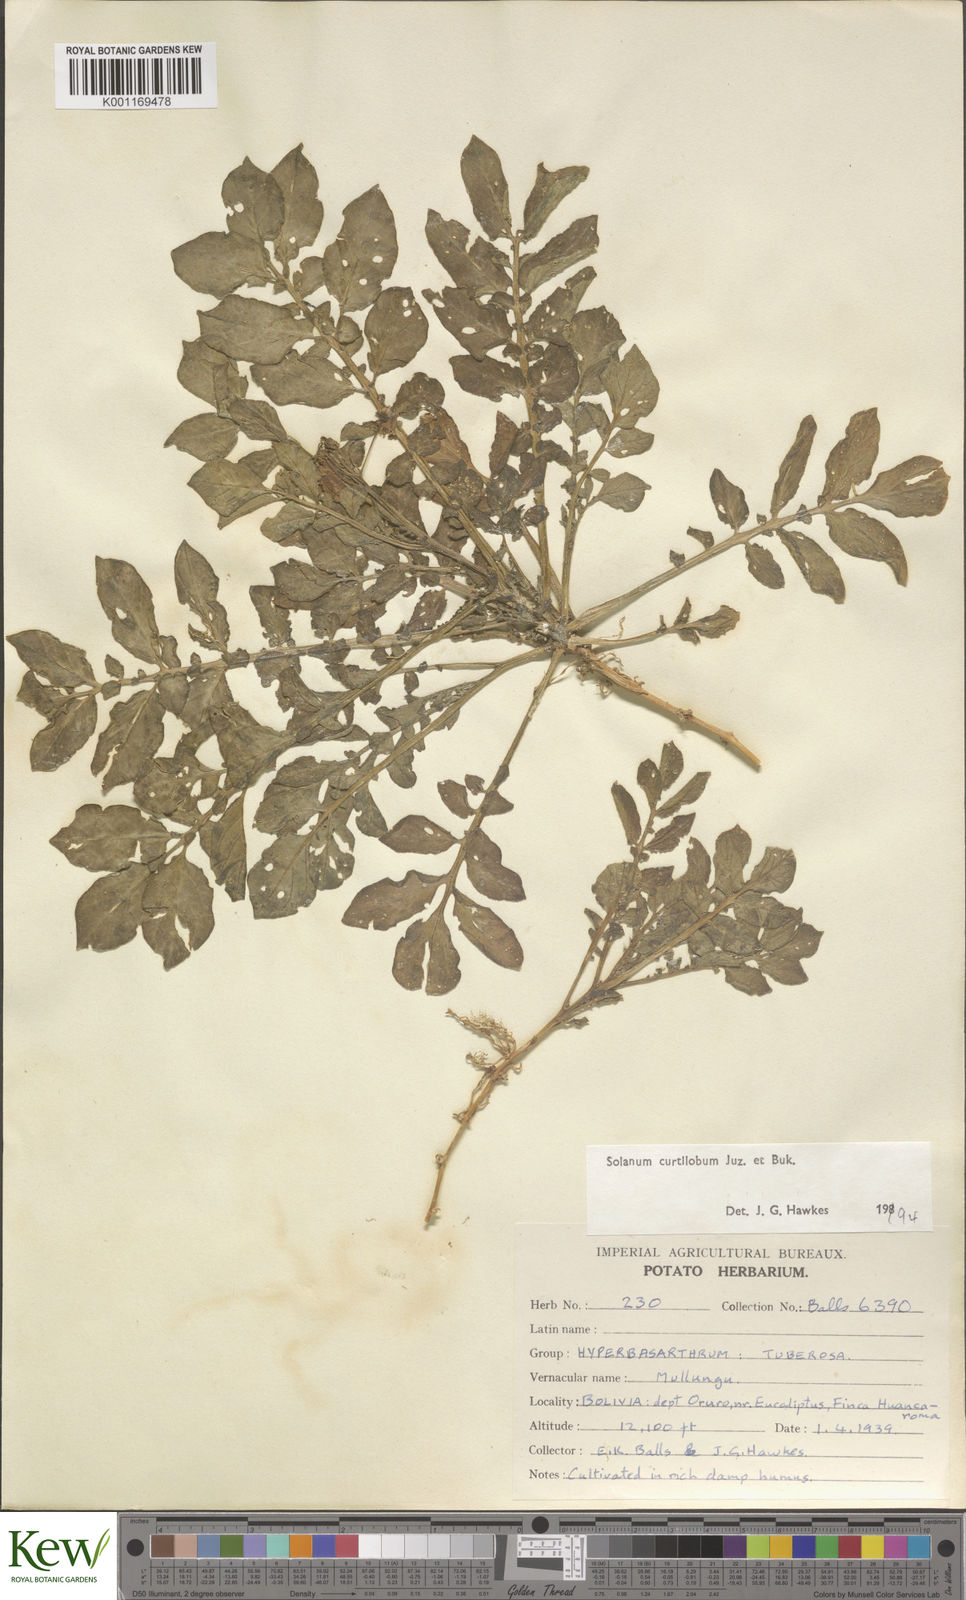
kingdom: Plantae
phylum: Tracheophyta
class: Magnoliopsida
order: Solanales
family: Solanaceae
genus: Solanum
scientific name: Solanum curtilobum
